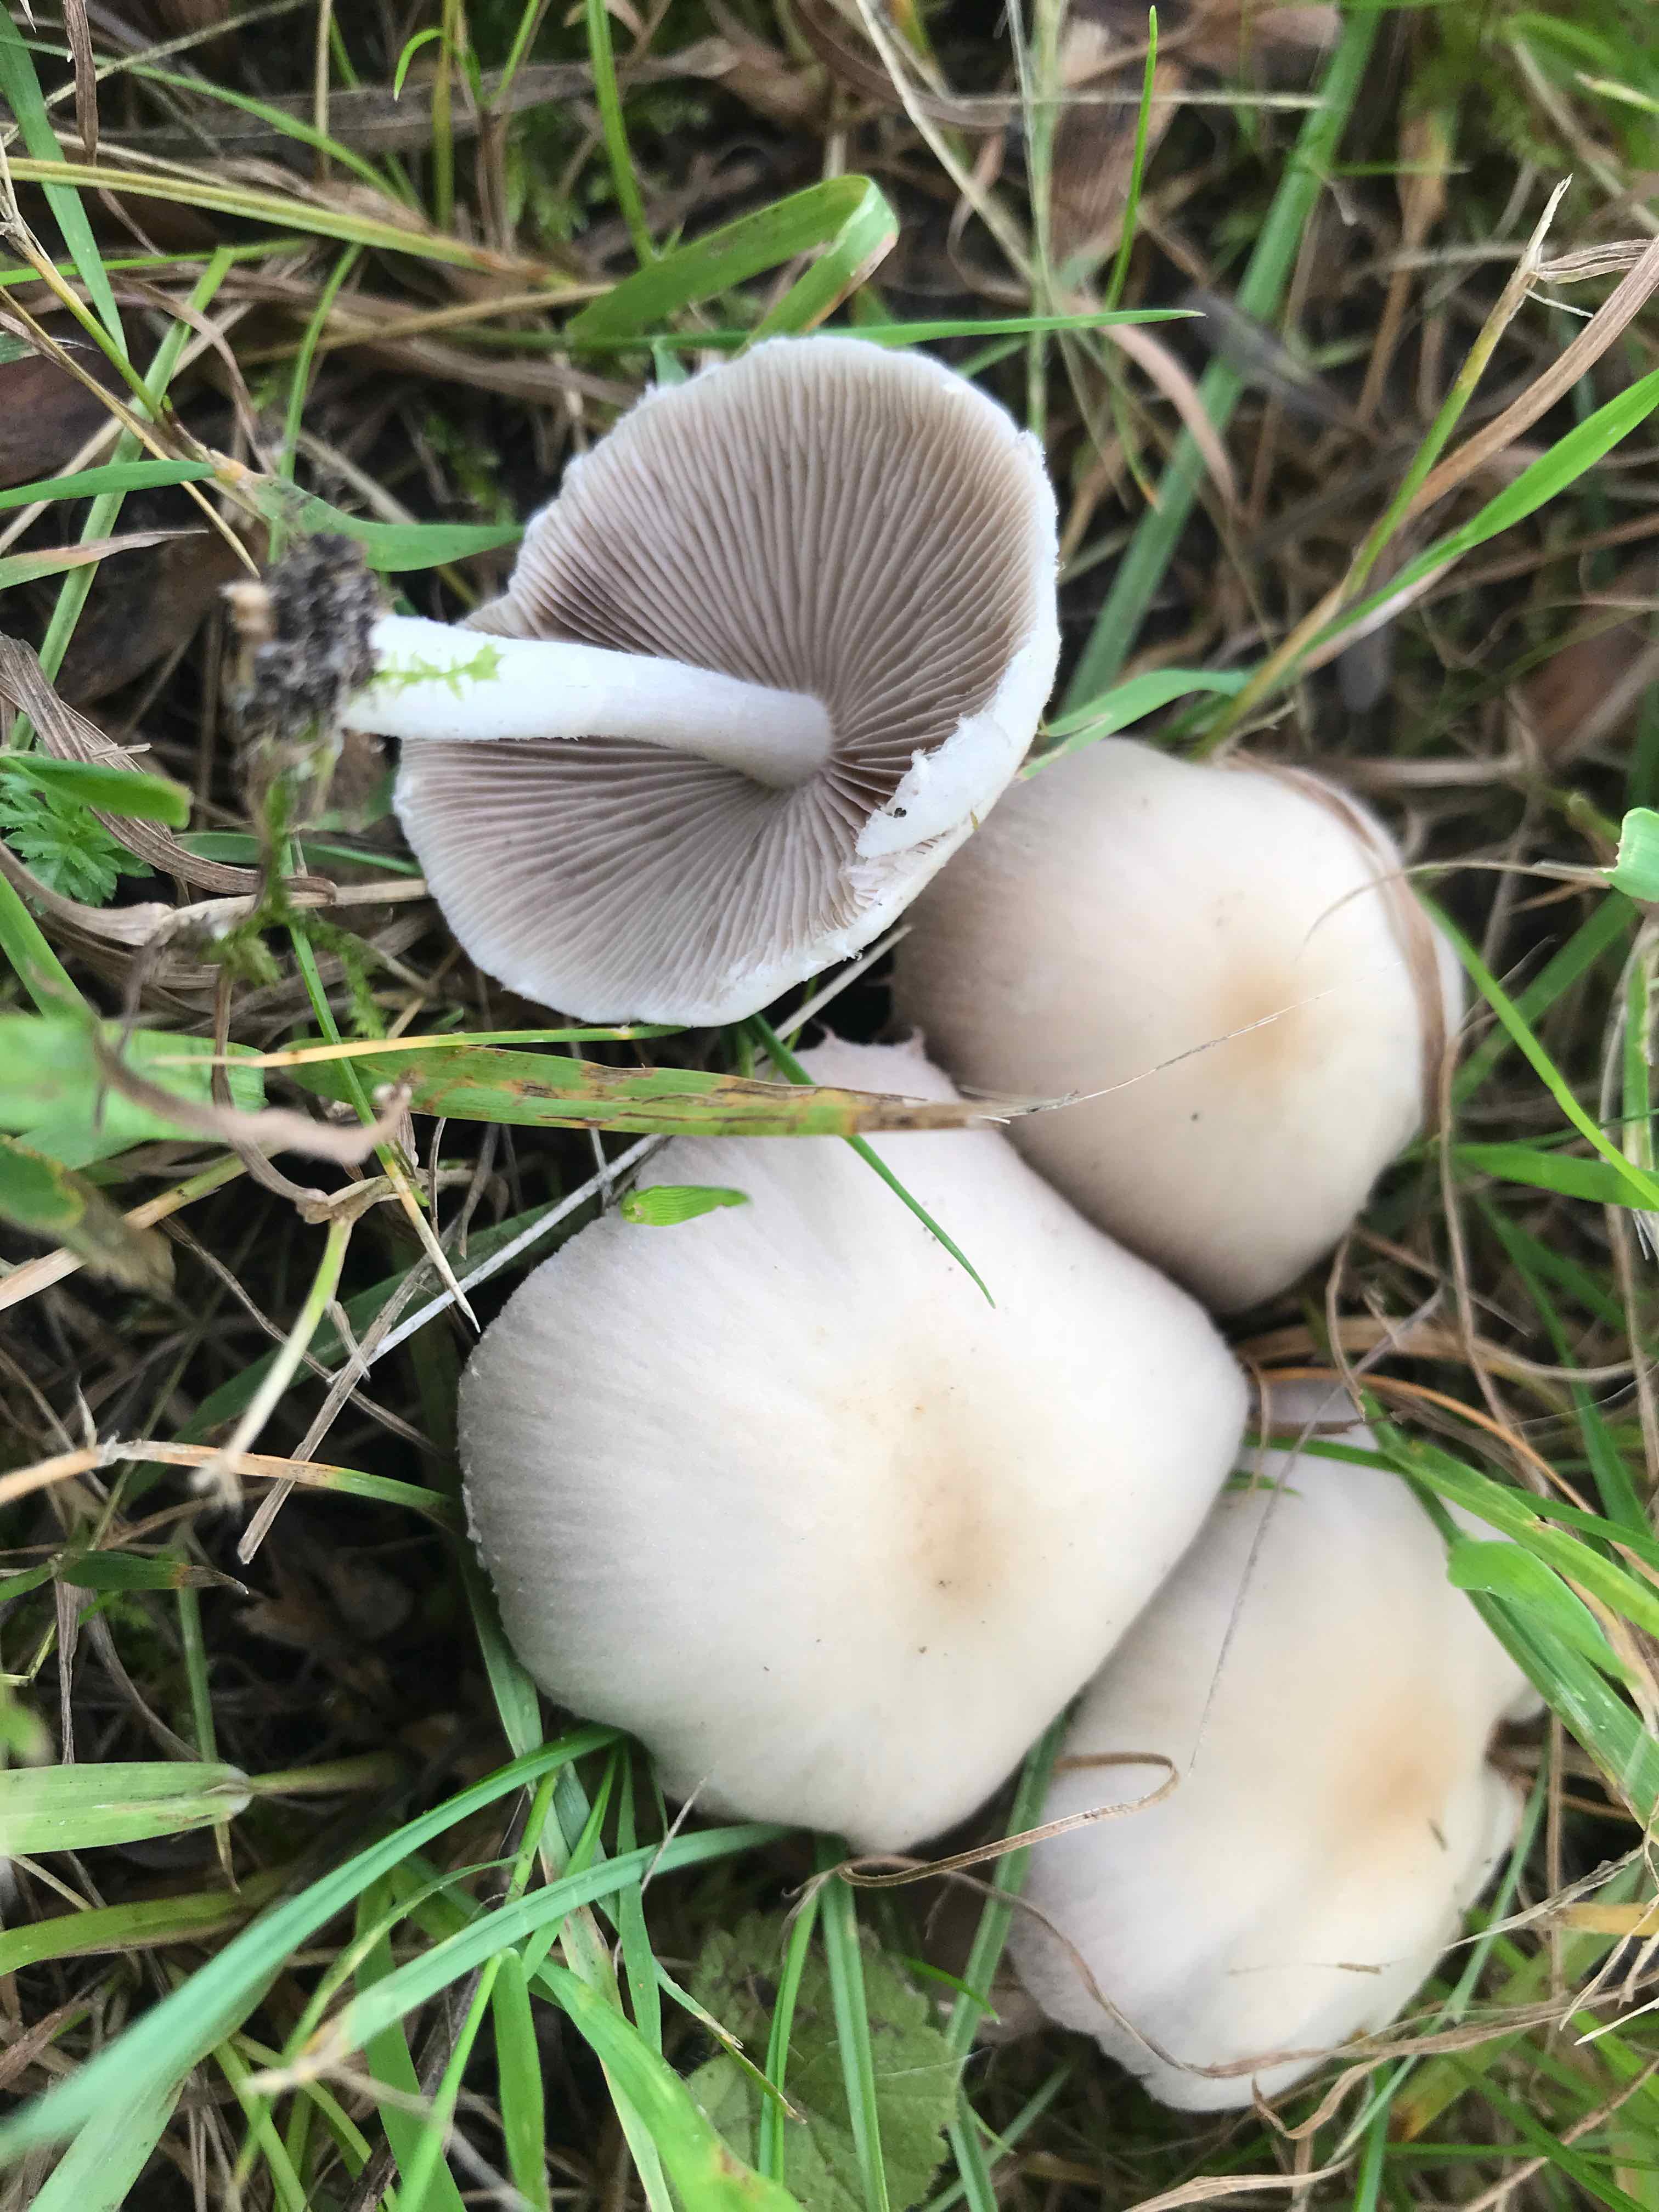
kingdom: Fungi
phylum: Basidiomycota
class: Agaricomycetes
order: Agaricales
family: Psathyrellaceae
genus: Candolleomyces
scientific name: Candolleomyces candolleanus
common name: Candolles mørkhat
